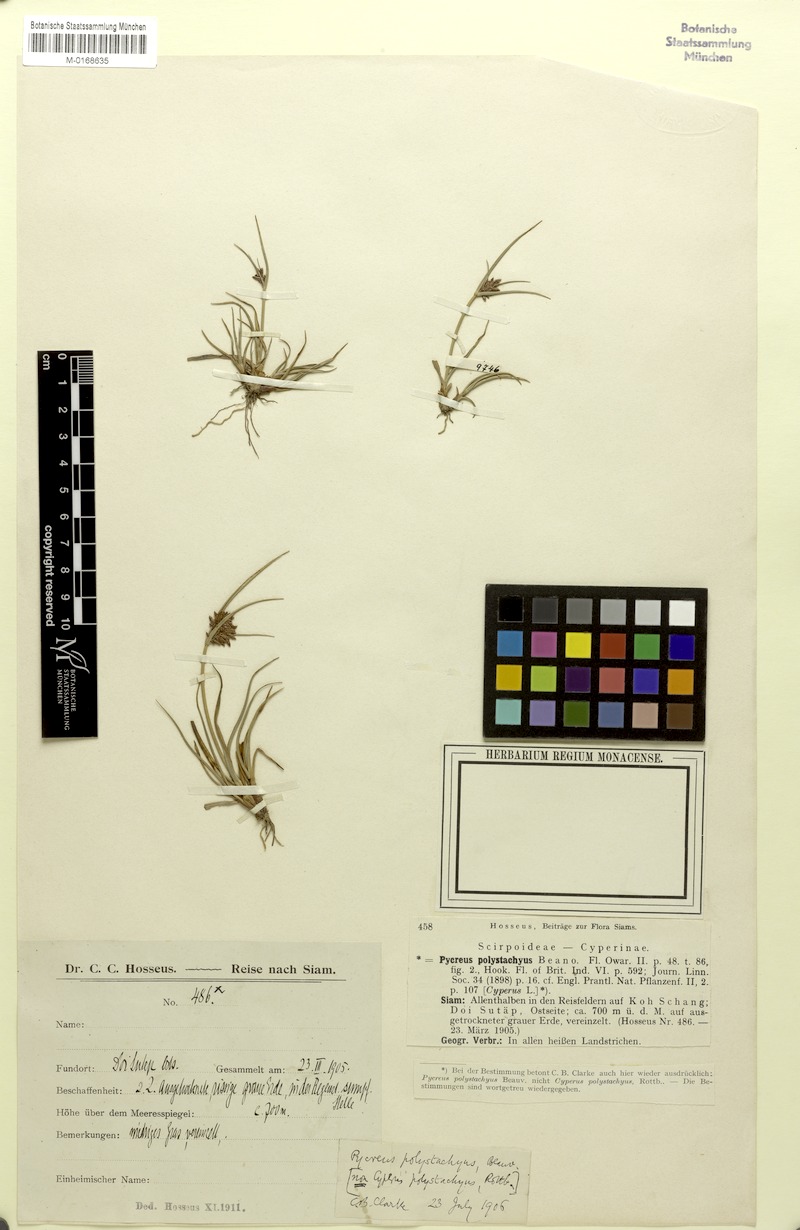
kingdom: Plantae
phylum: Tracheophyta
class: Liliopsida
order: Poales
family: Cyperaceae
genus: Cyperus
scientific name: Cyperus polystachyos
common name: Bunchy flat sedge
